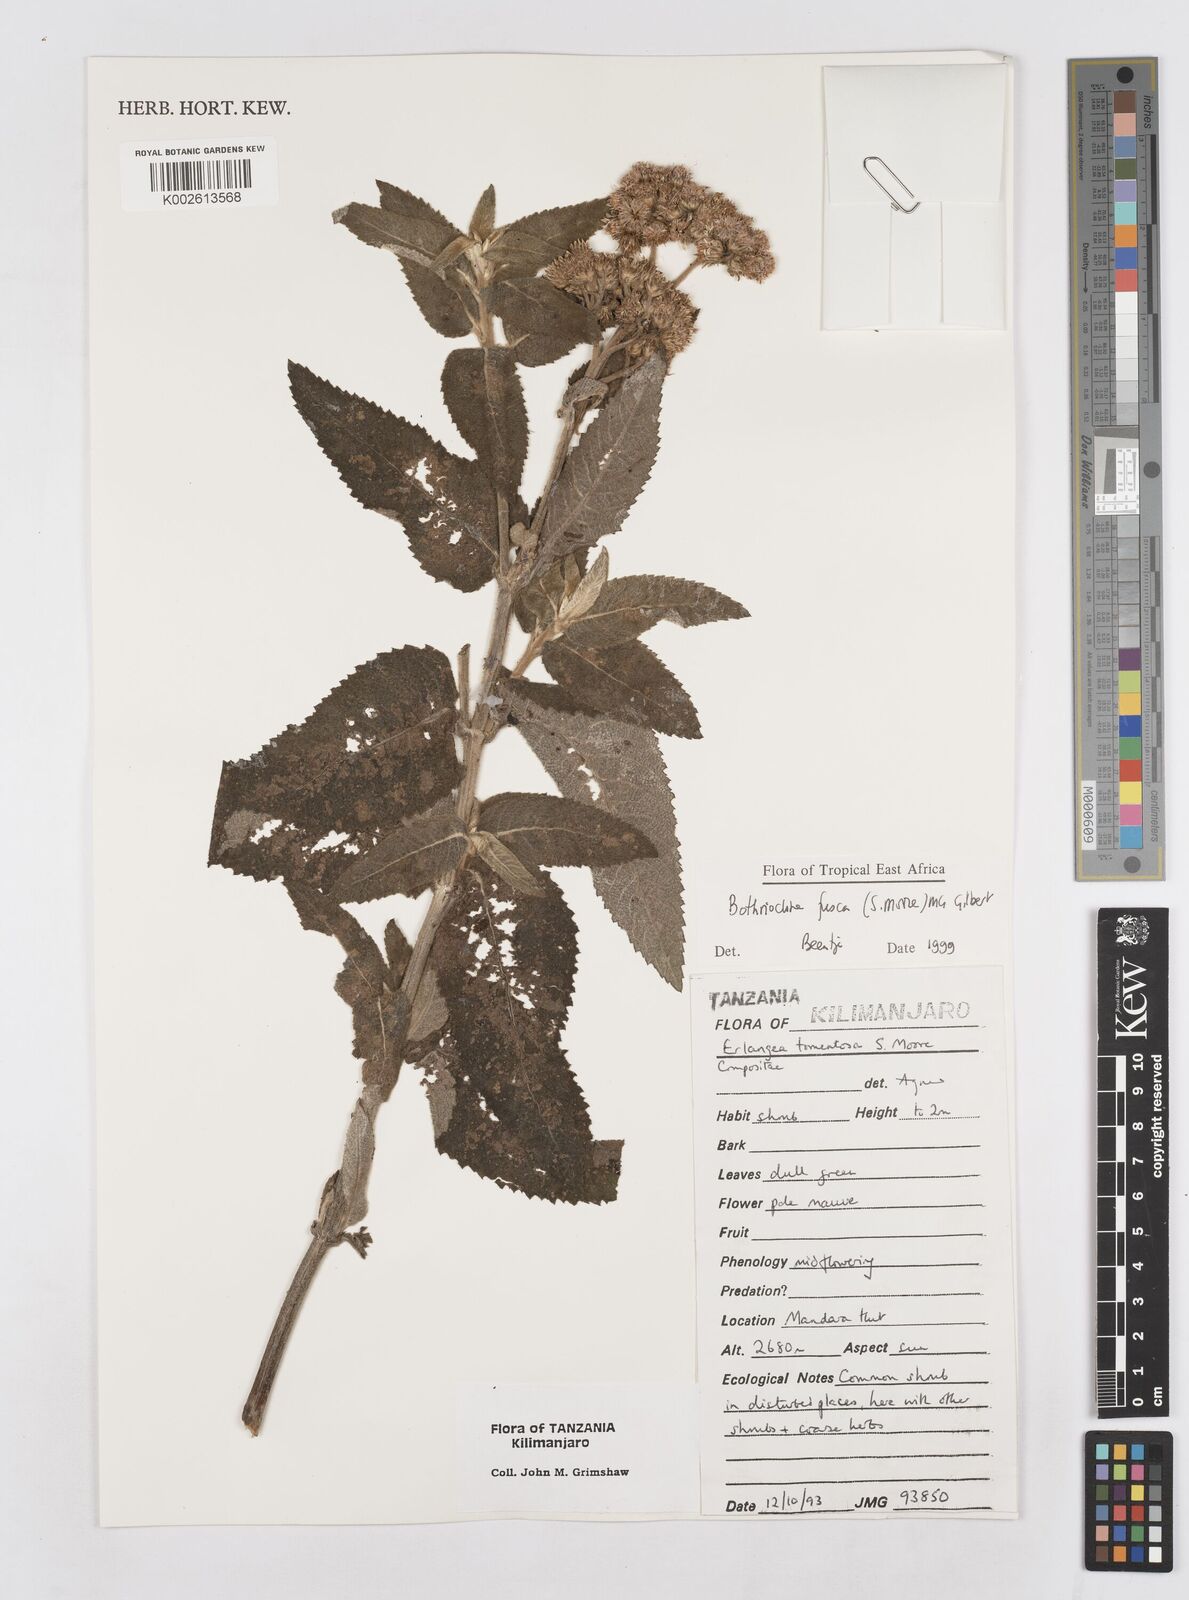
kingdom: Plantae
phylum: Tracheophyta
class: Magnoliopsida
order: Asterales
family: Asteraceae
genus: Bothriocline
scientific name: Bothriocline fusca
